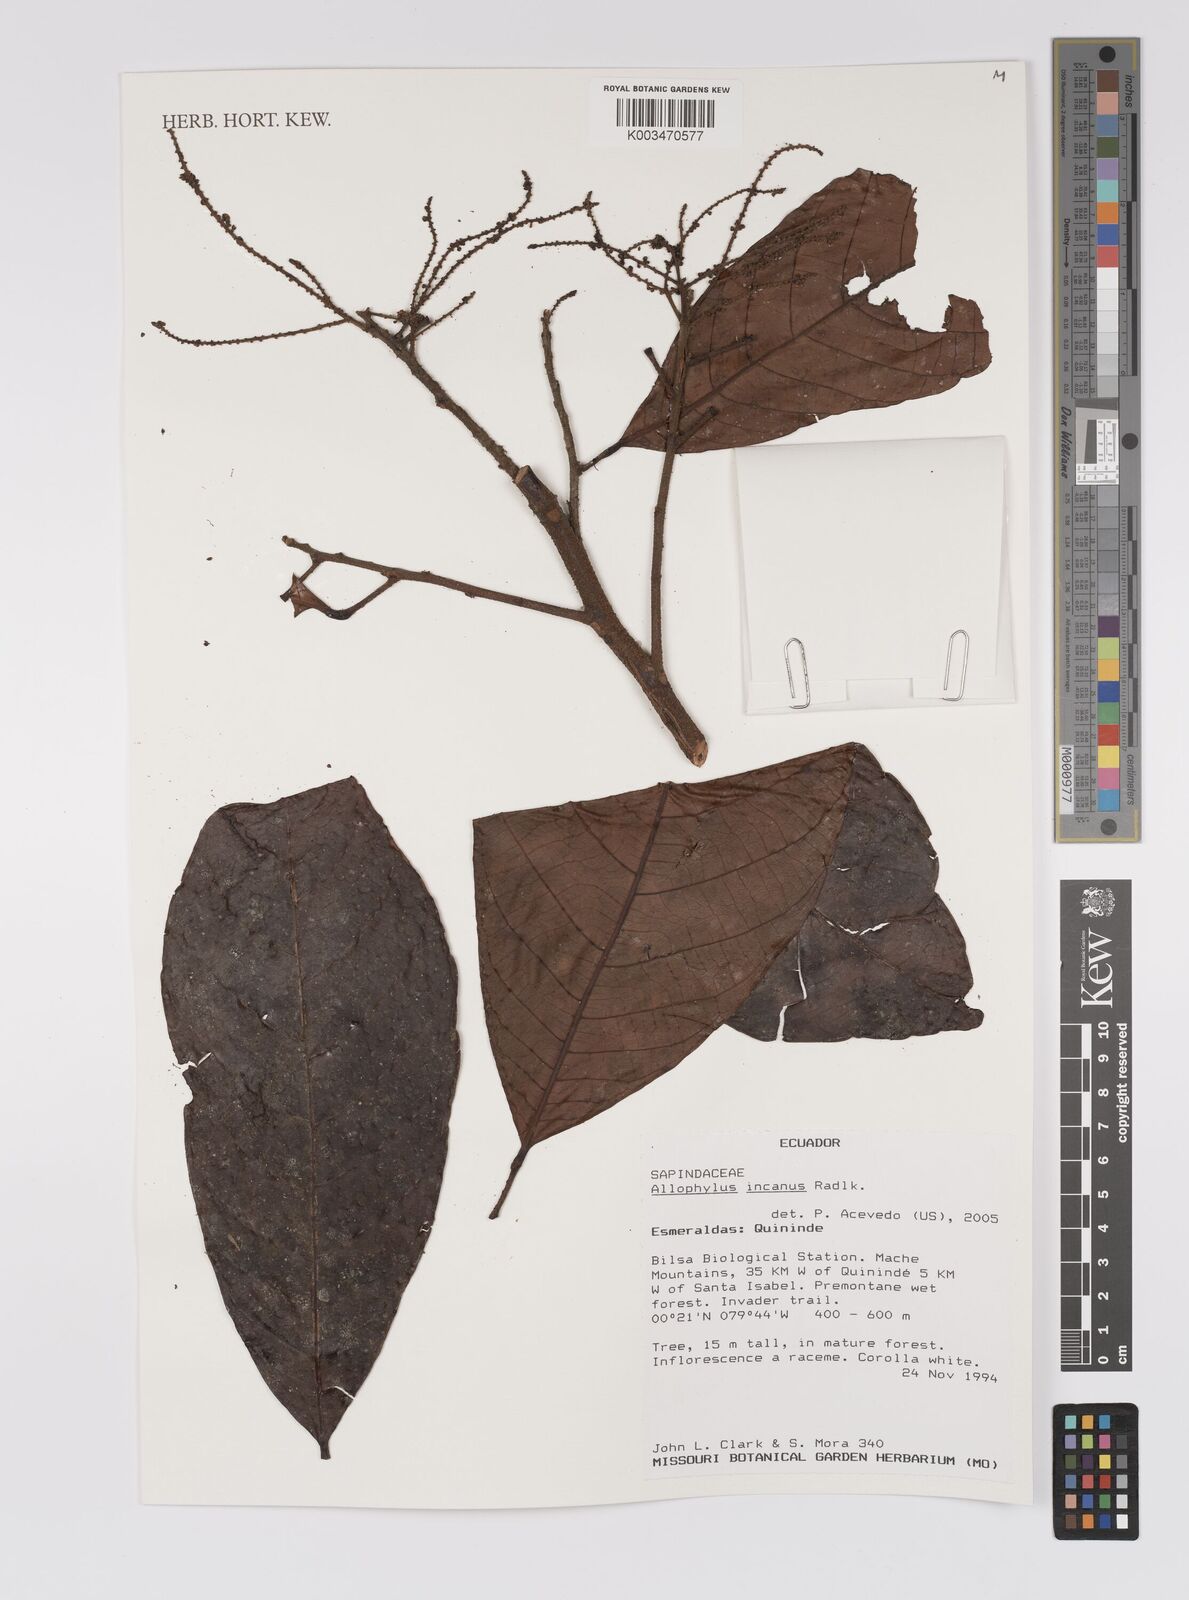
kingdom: Plantae
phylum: Tracheophyta
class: Magnoliopsida
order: Sapindales
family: Sapindaceae
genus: Allophylus
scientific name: Allophylus incanus
